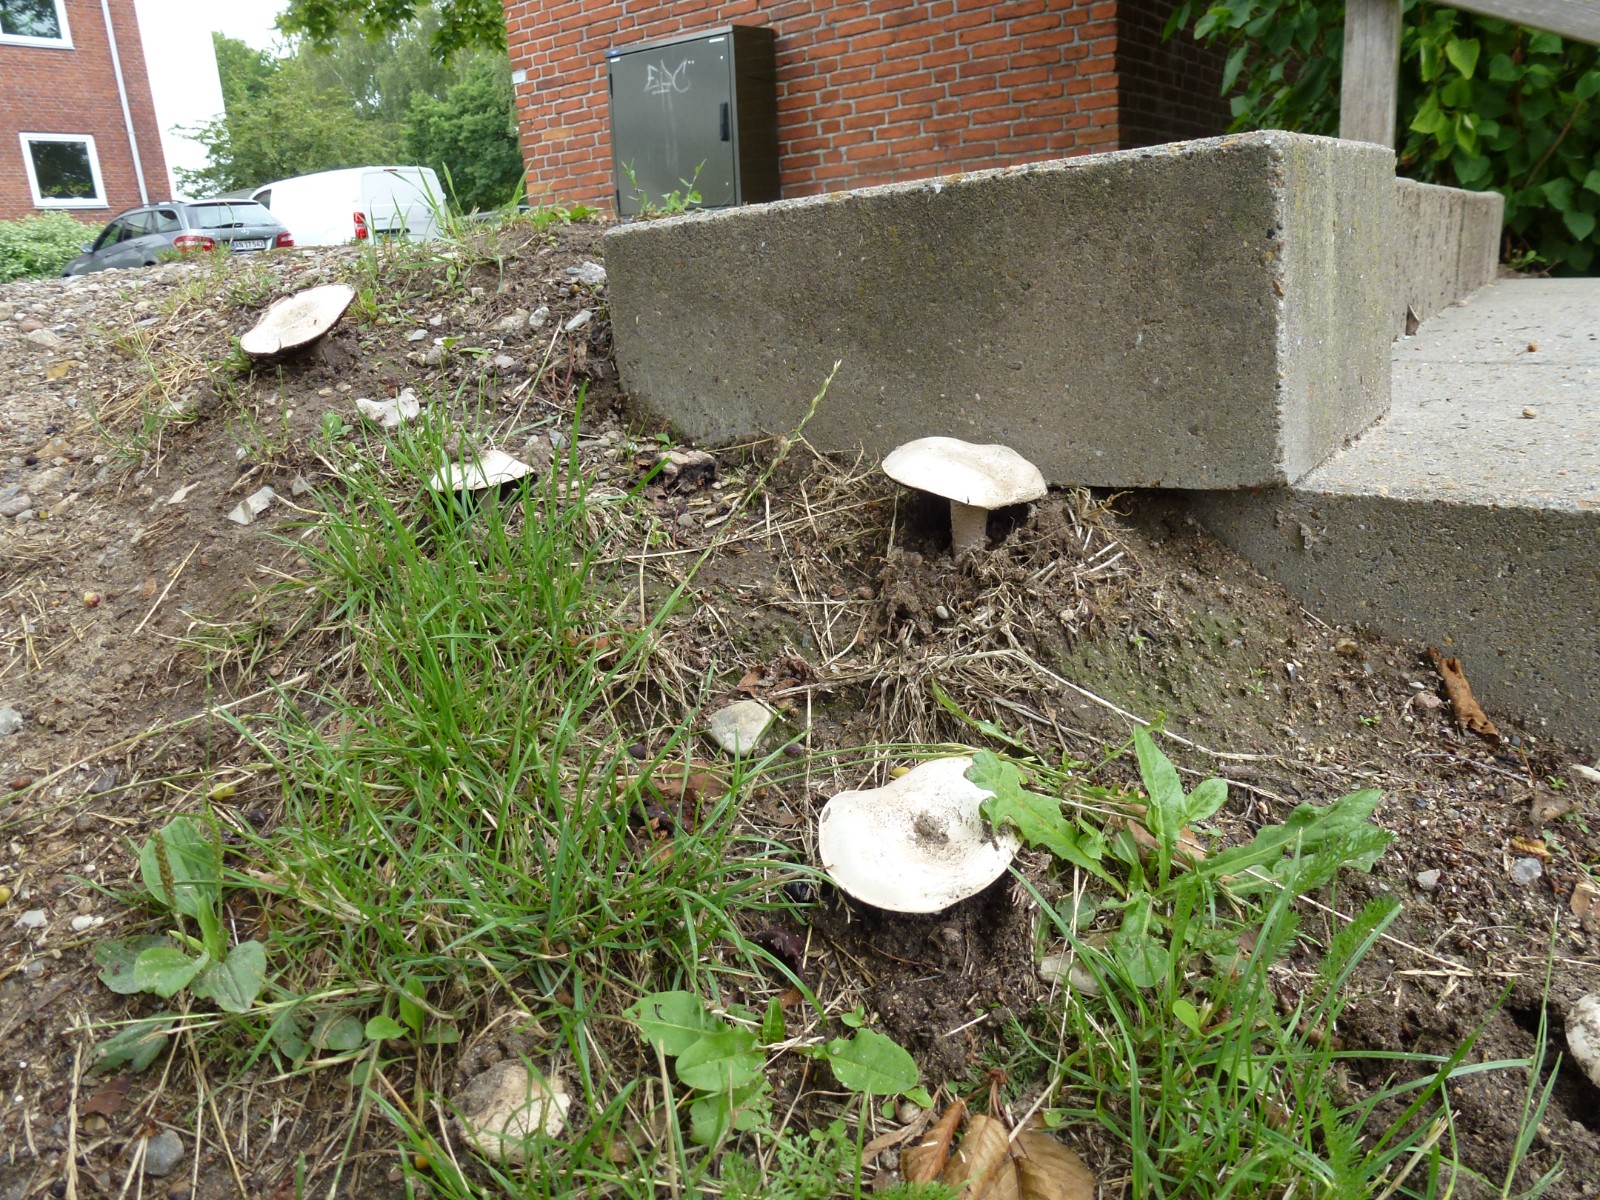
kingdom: Fungi
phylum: Basidiomycota
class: Agaricomycetes
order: Agaricales
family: Agaricaceae
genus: Agaricus
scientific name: Agaricus
